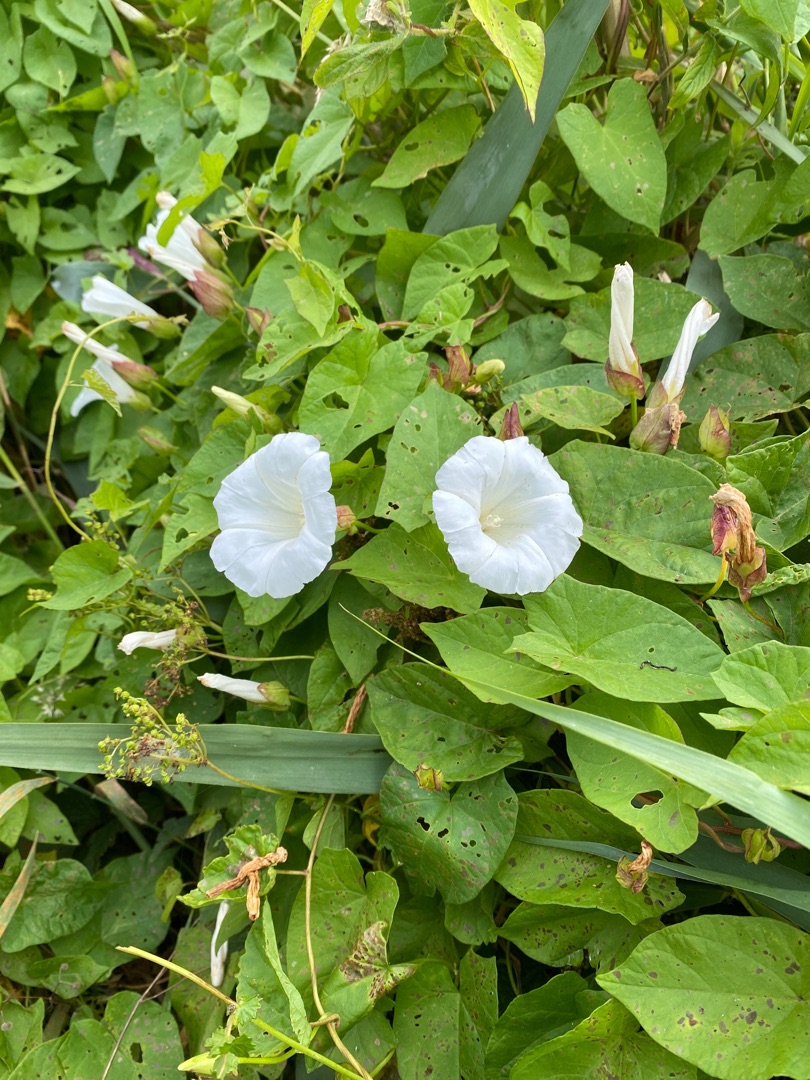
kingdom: Plantae
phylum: Tracheophyta
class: Magnoliopsida
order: Solanales
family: Convolvulaceae
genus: Calystegia
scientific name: Calystegia sepium
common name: Gærde-snerle
